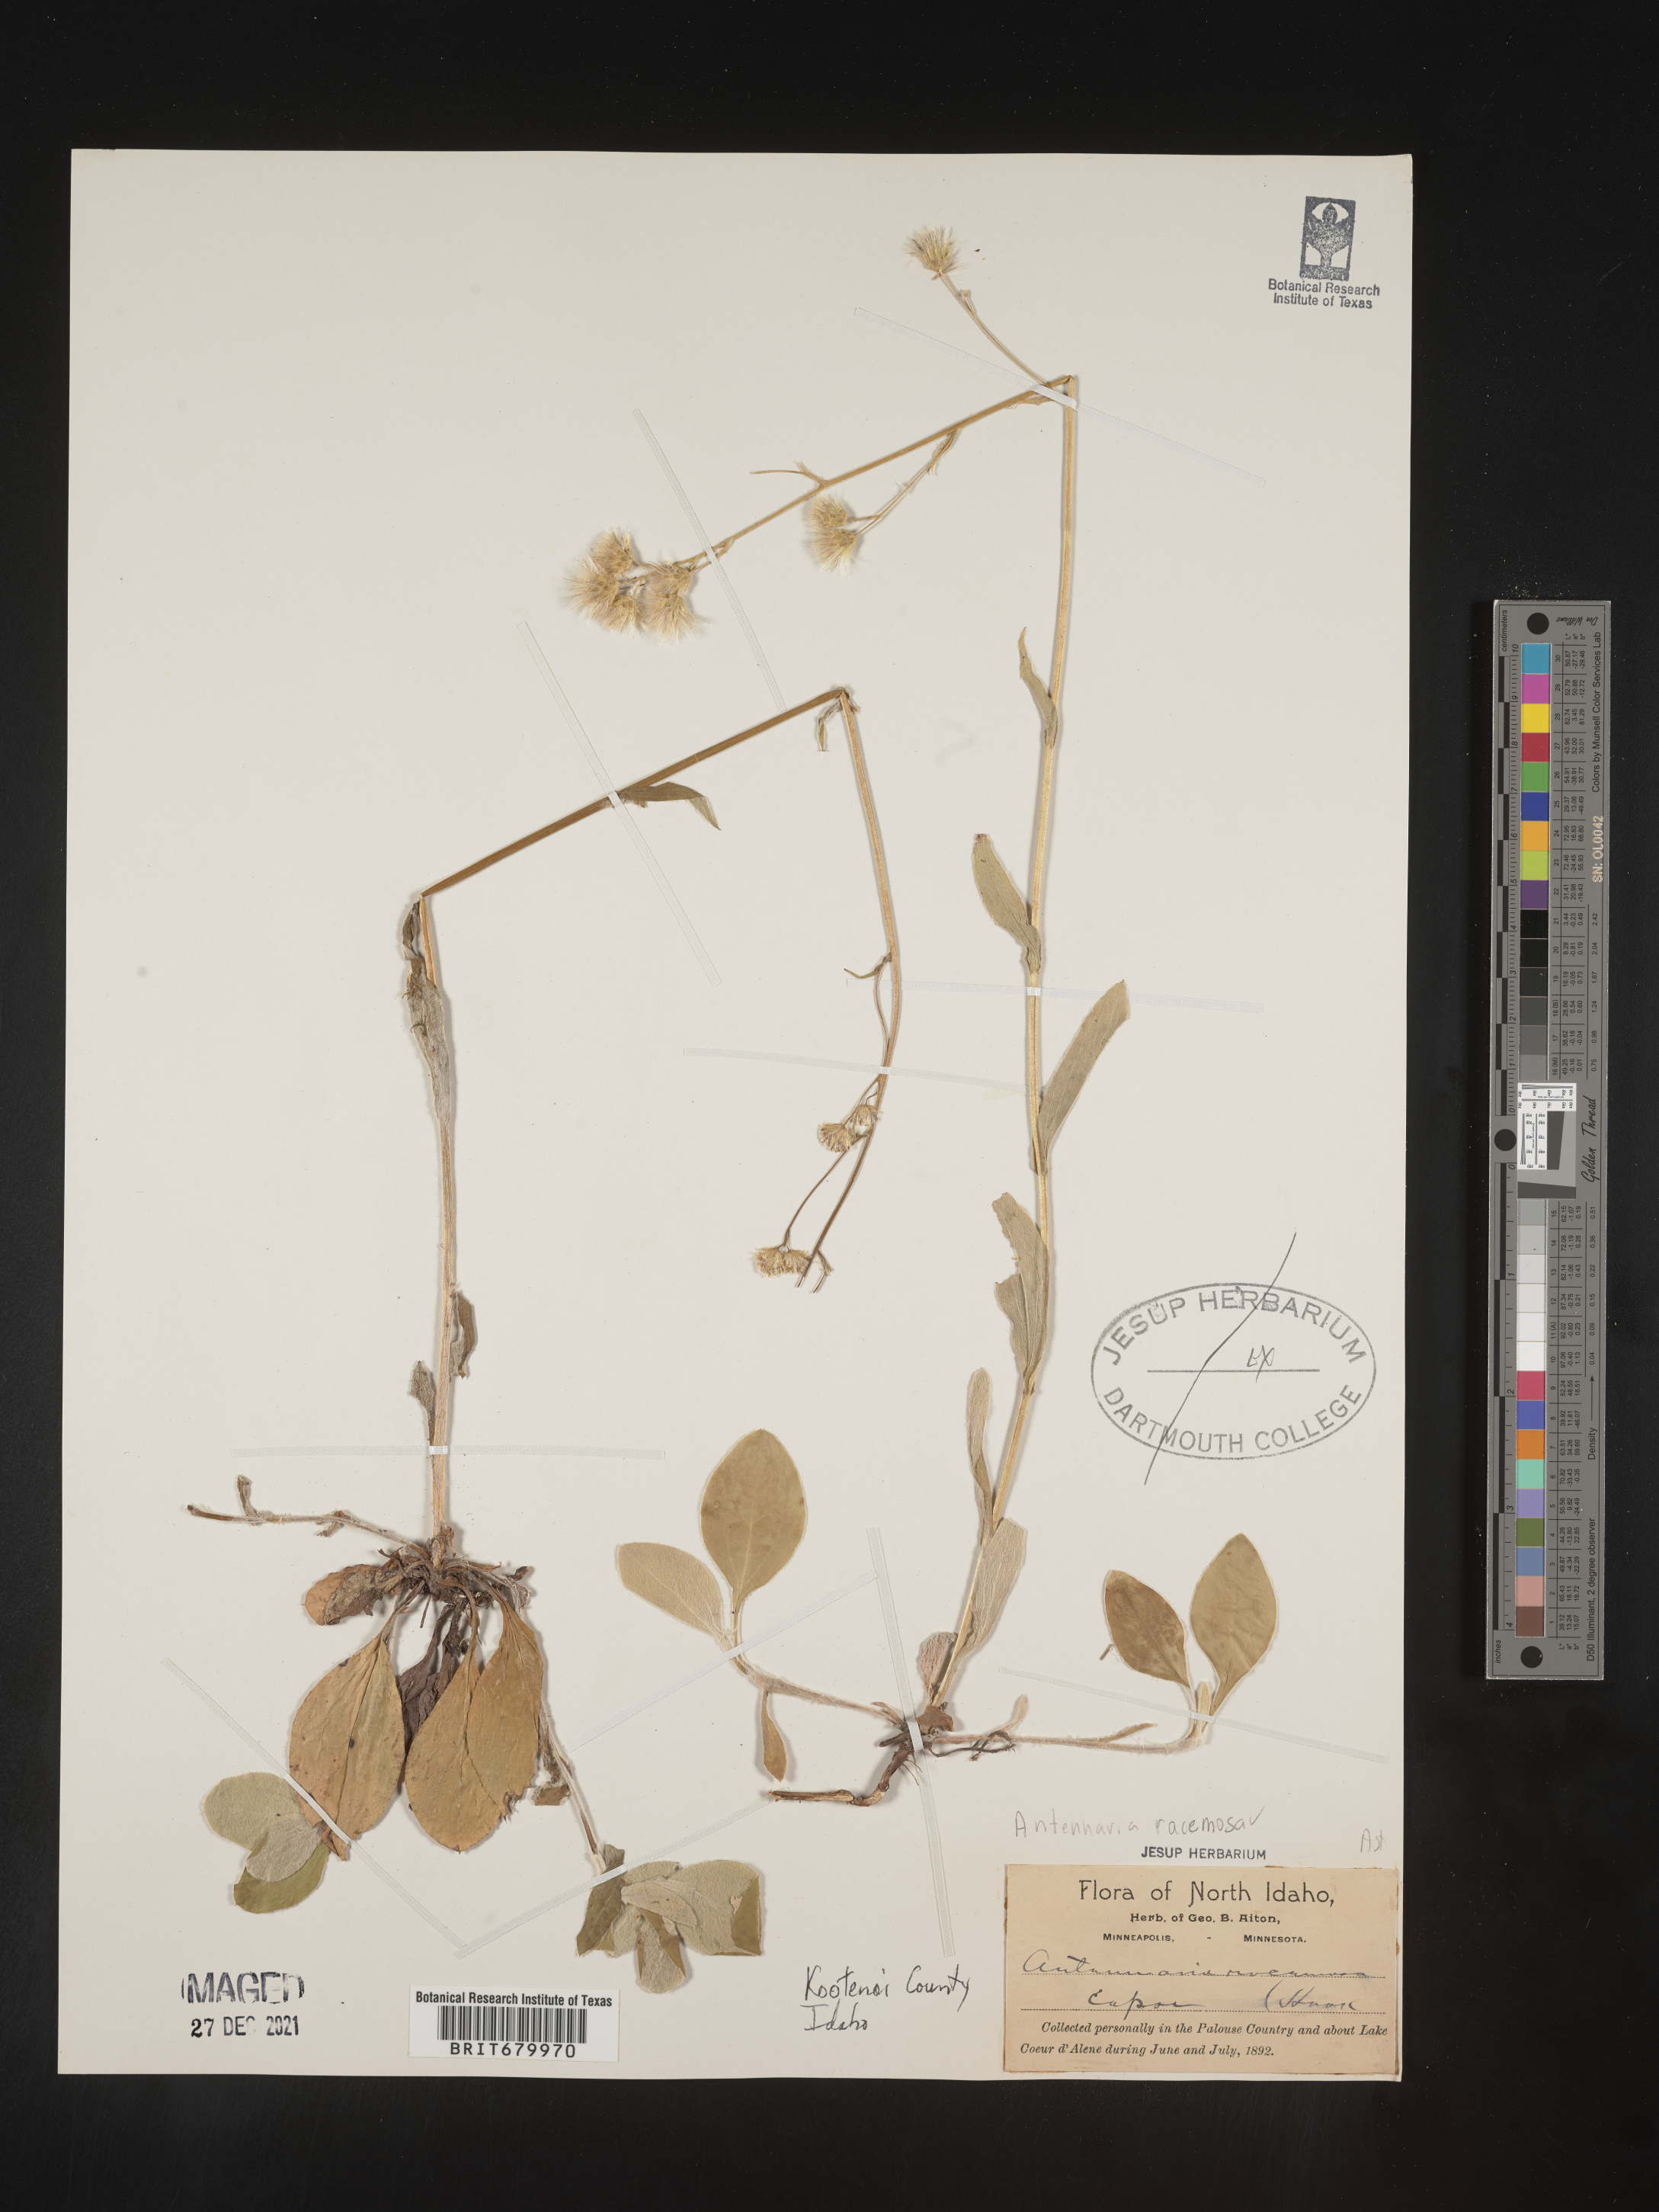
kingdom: Plantae
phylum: Tracheophyta
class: Magnoliopsida
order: Asterales
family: Asteraceae
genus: Antennaria
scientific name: Antennaria racemosa
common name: Racemose pussytoes
